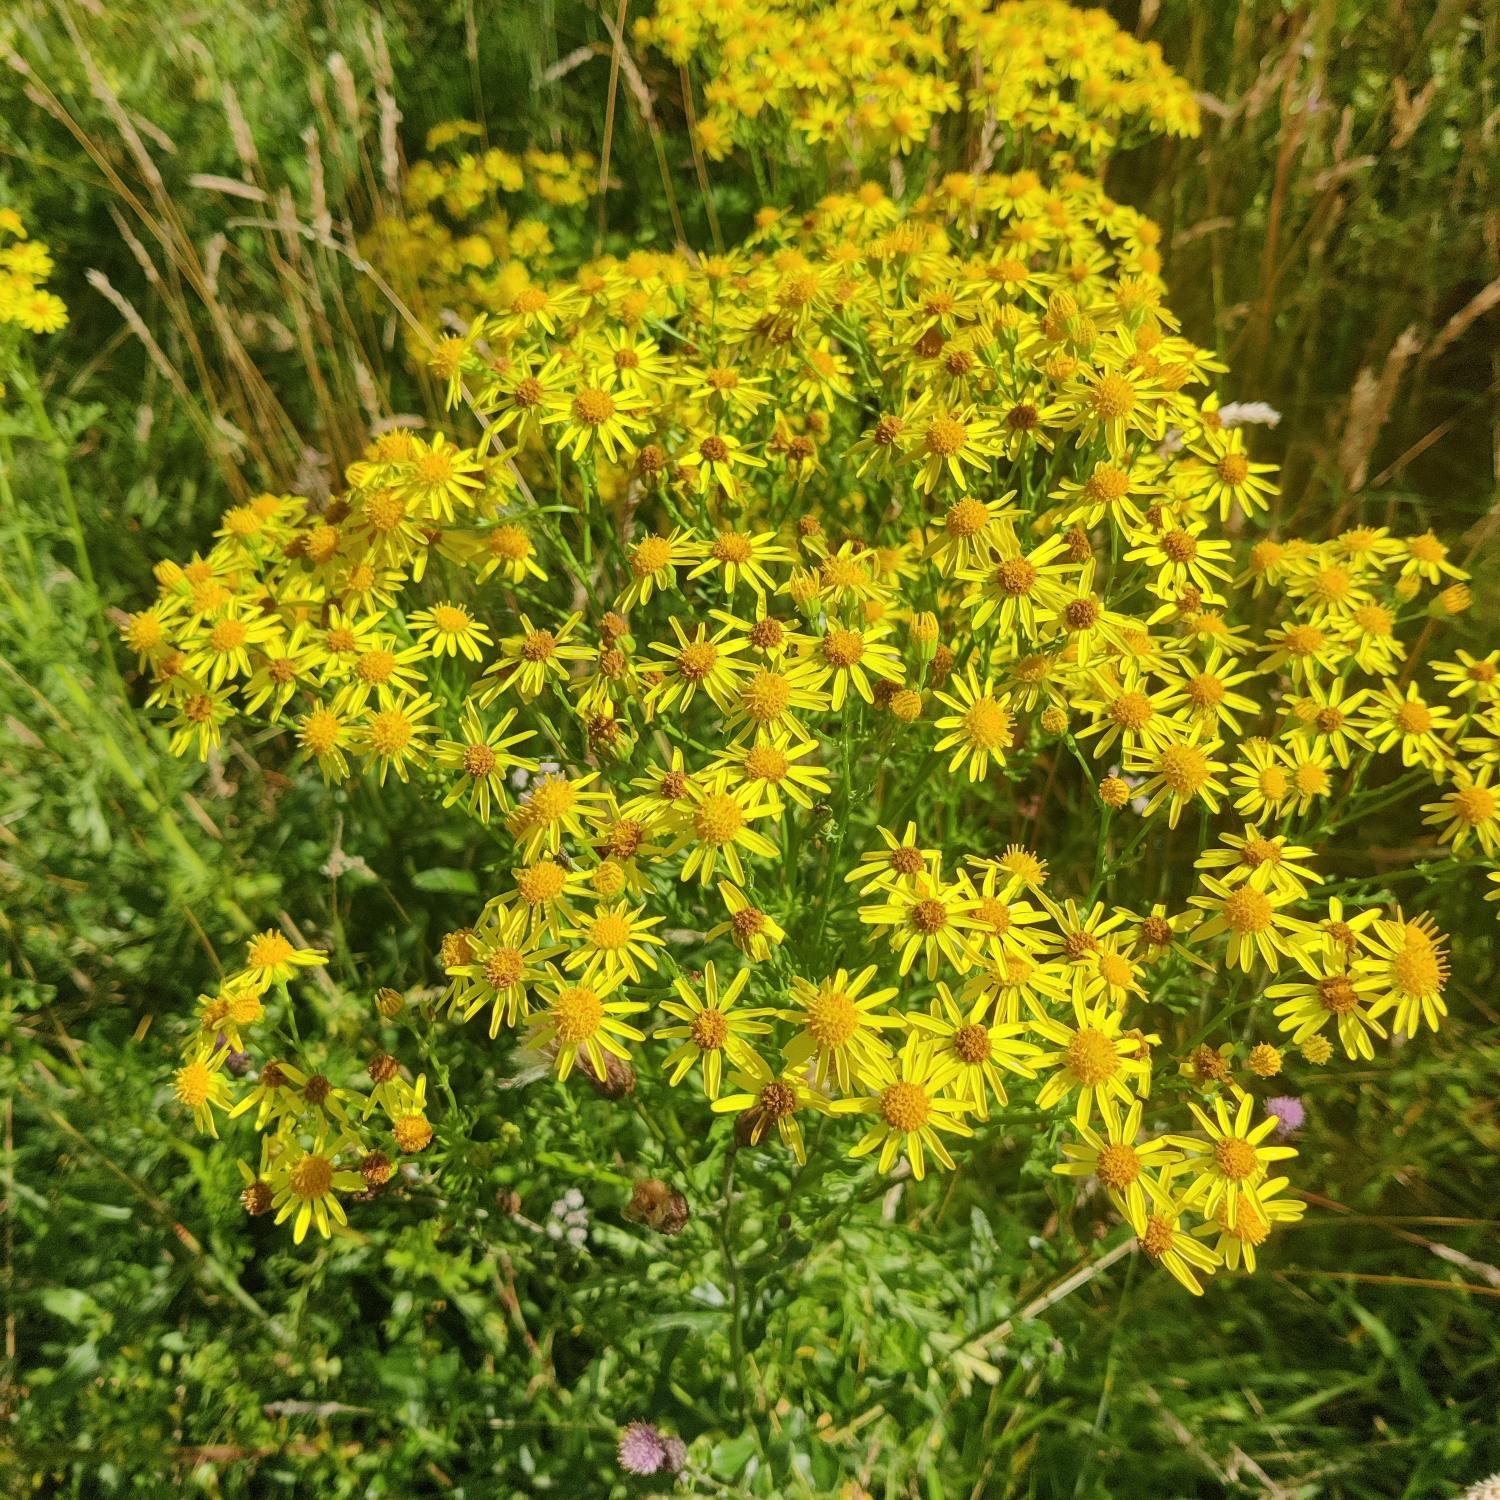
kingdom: Plantae
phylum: Tracheophyta
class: Magnoliopsida
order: Asterales
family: Asteraceae
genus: Jacobaea
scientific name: Jacobaea vulgaris
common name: Eng-brandbæger
